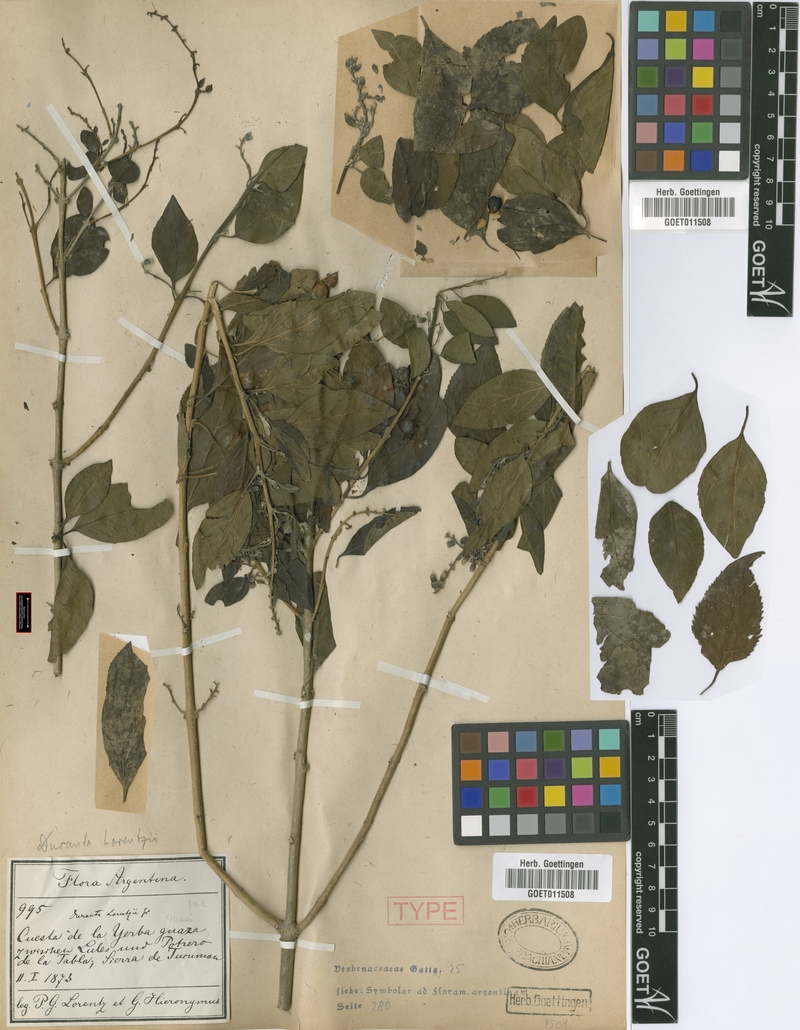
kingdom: Plantae
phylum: Tracheophyta
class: Magnoliopsida
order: Lamiales
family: Verbenaceae
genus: Duranta
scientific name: Duranta serratifolia
